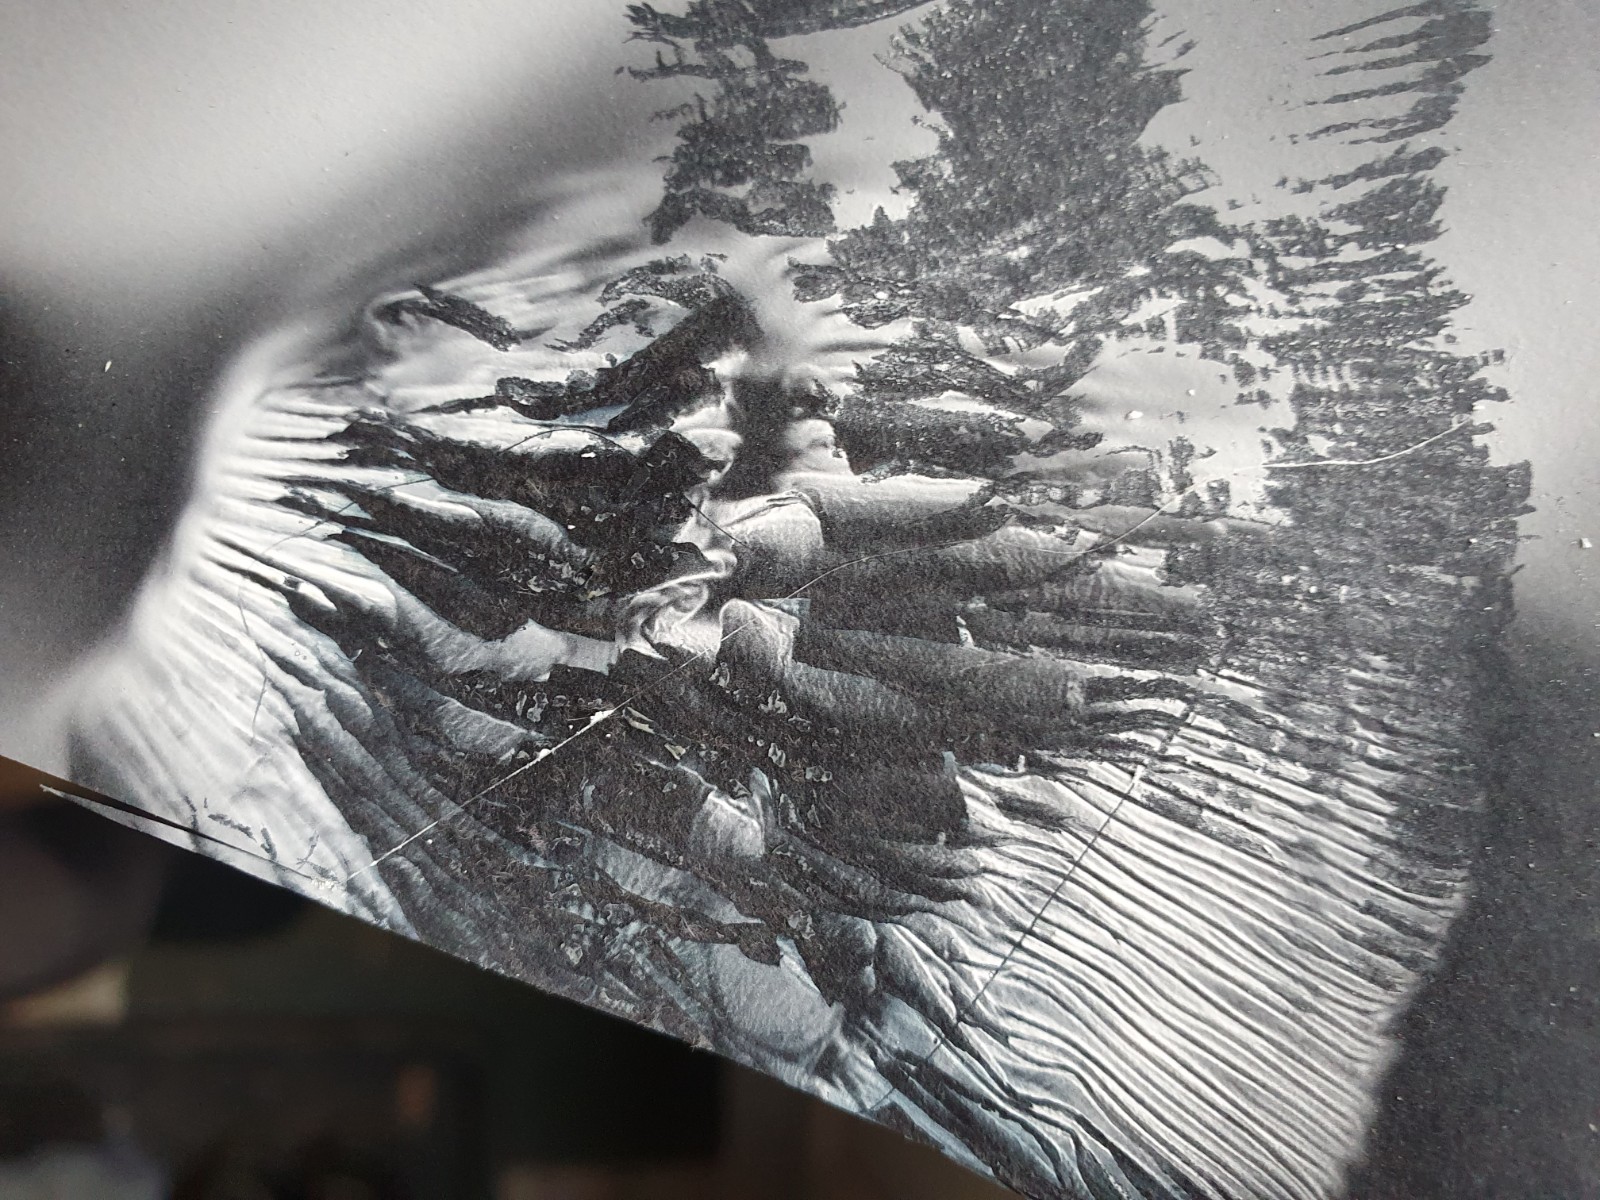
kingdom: Fungi
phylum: Basidiomycota
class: Agaricomycetes
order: Agaricales
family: Tricholomataceae
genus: Melanoleuca
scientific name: Melanoleuca cognata
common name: gyldengrå munkehat
